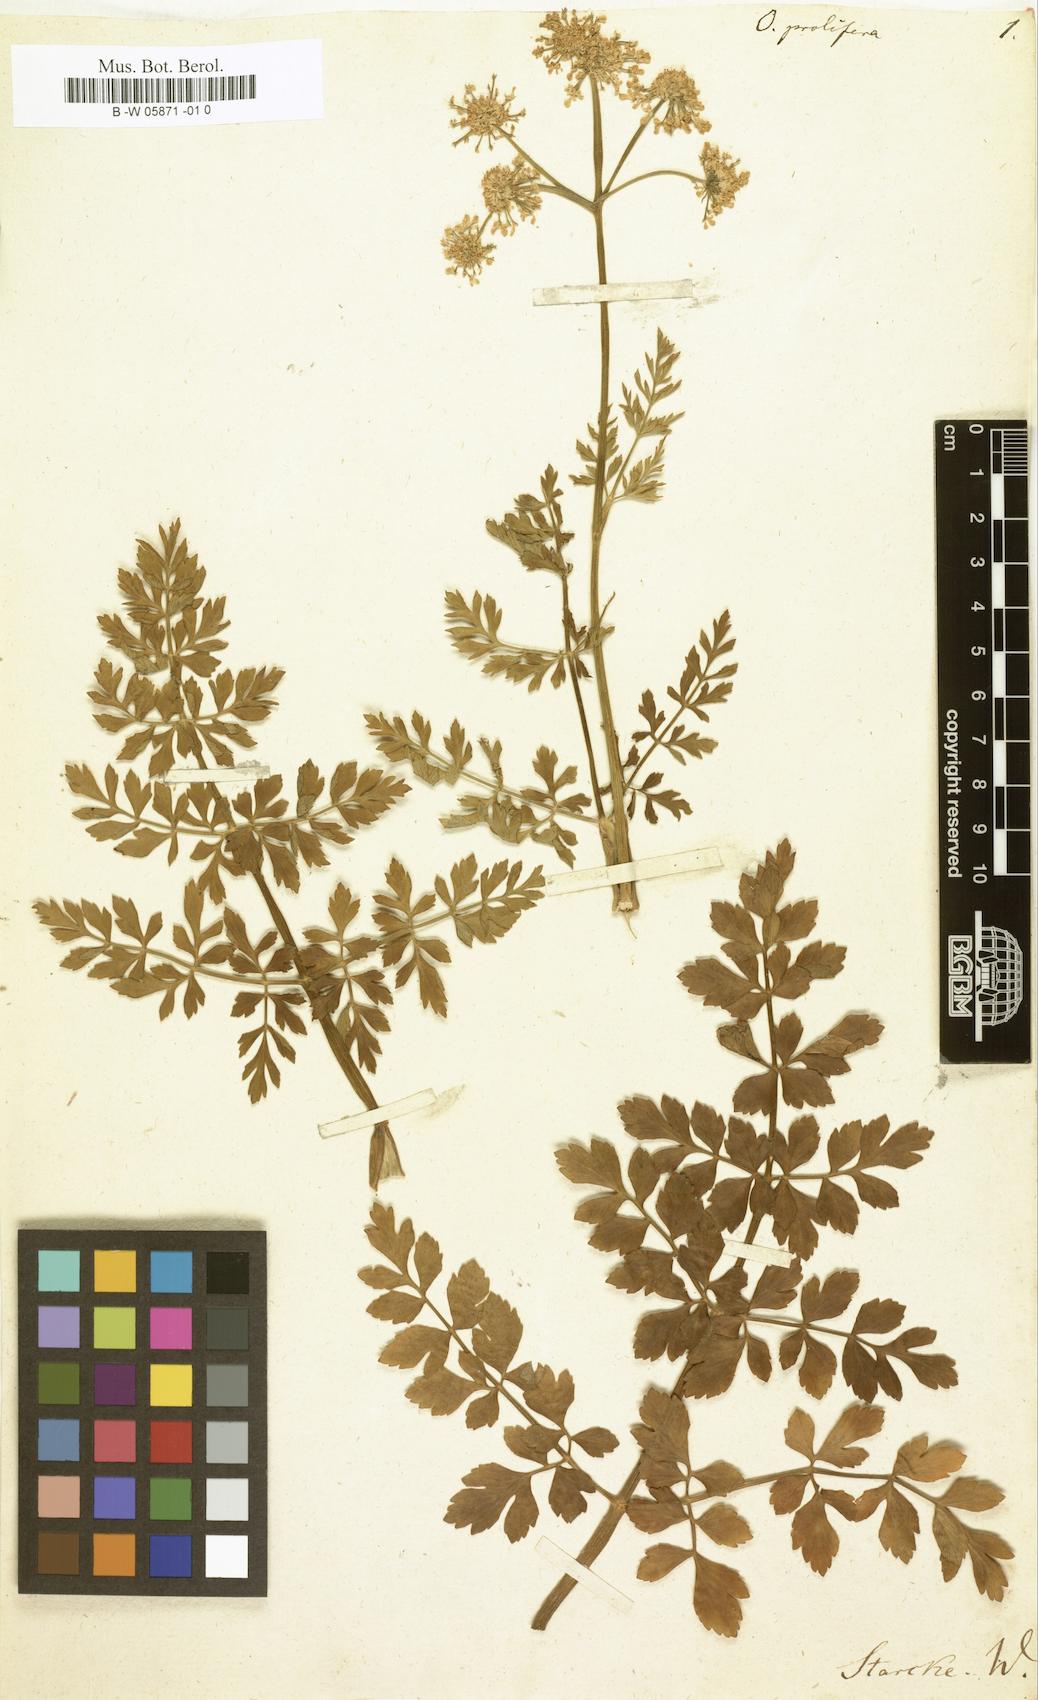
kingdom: Plantae
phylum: Tracheophyta
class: Magnoliopsida
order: Apiales
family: Apiaceae
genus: Oenanthe
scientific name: Oenanthe virgata
